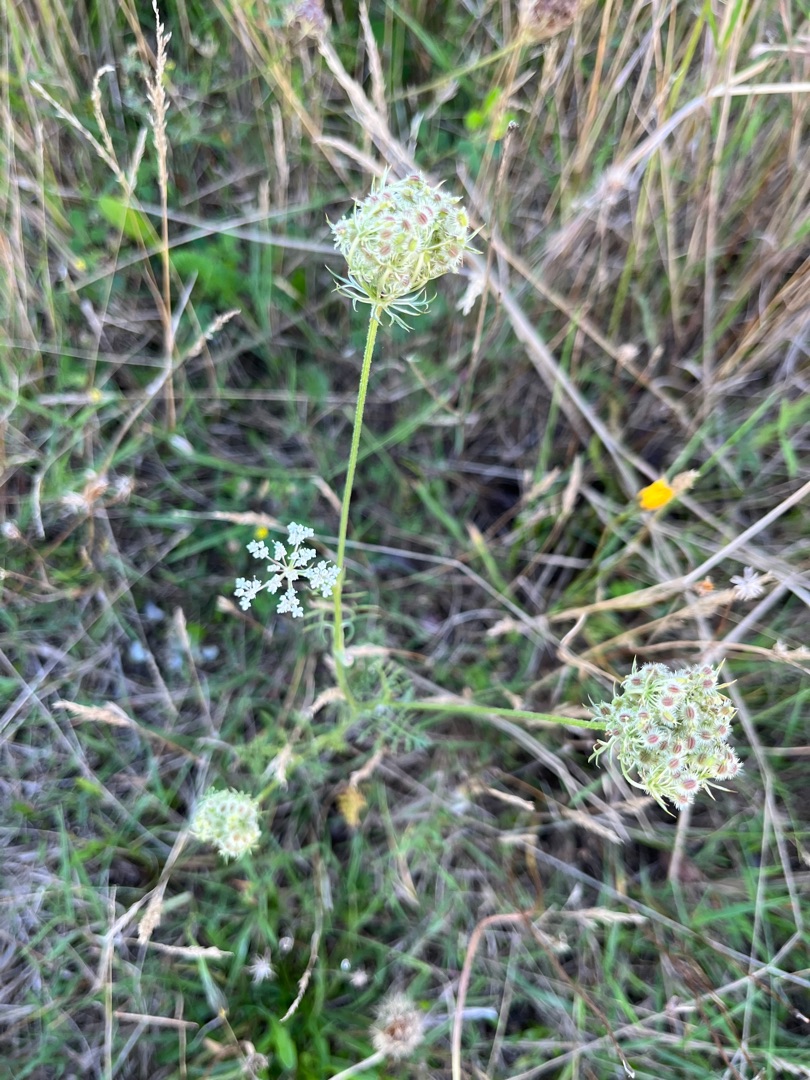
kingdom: Plantae
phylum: Tracheophyta
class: Magnoliopsida
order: Apiales
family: Apiaceae
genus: Daucus
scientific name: Daucus carota
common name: Gulerod
